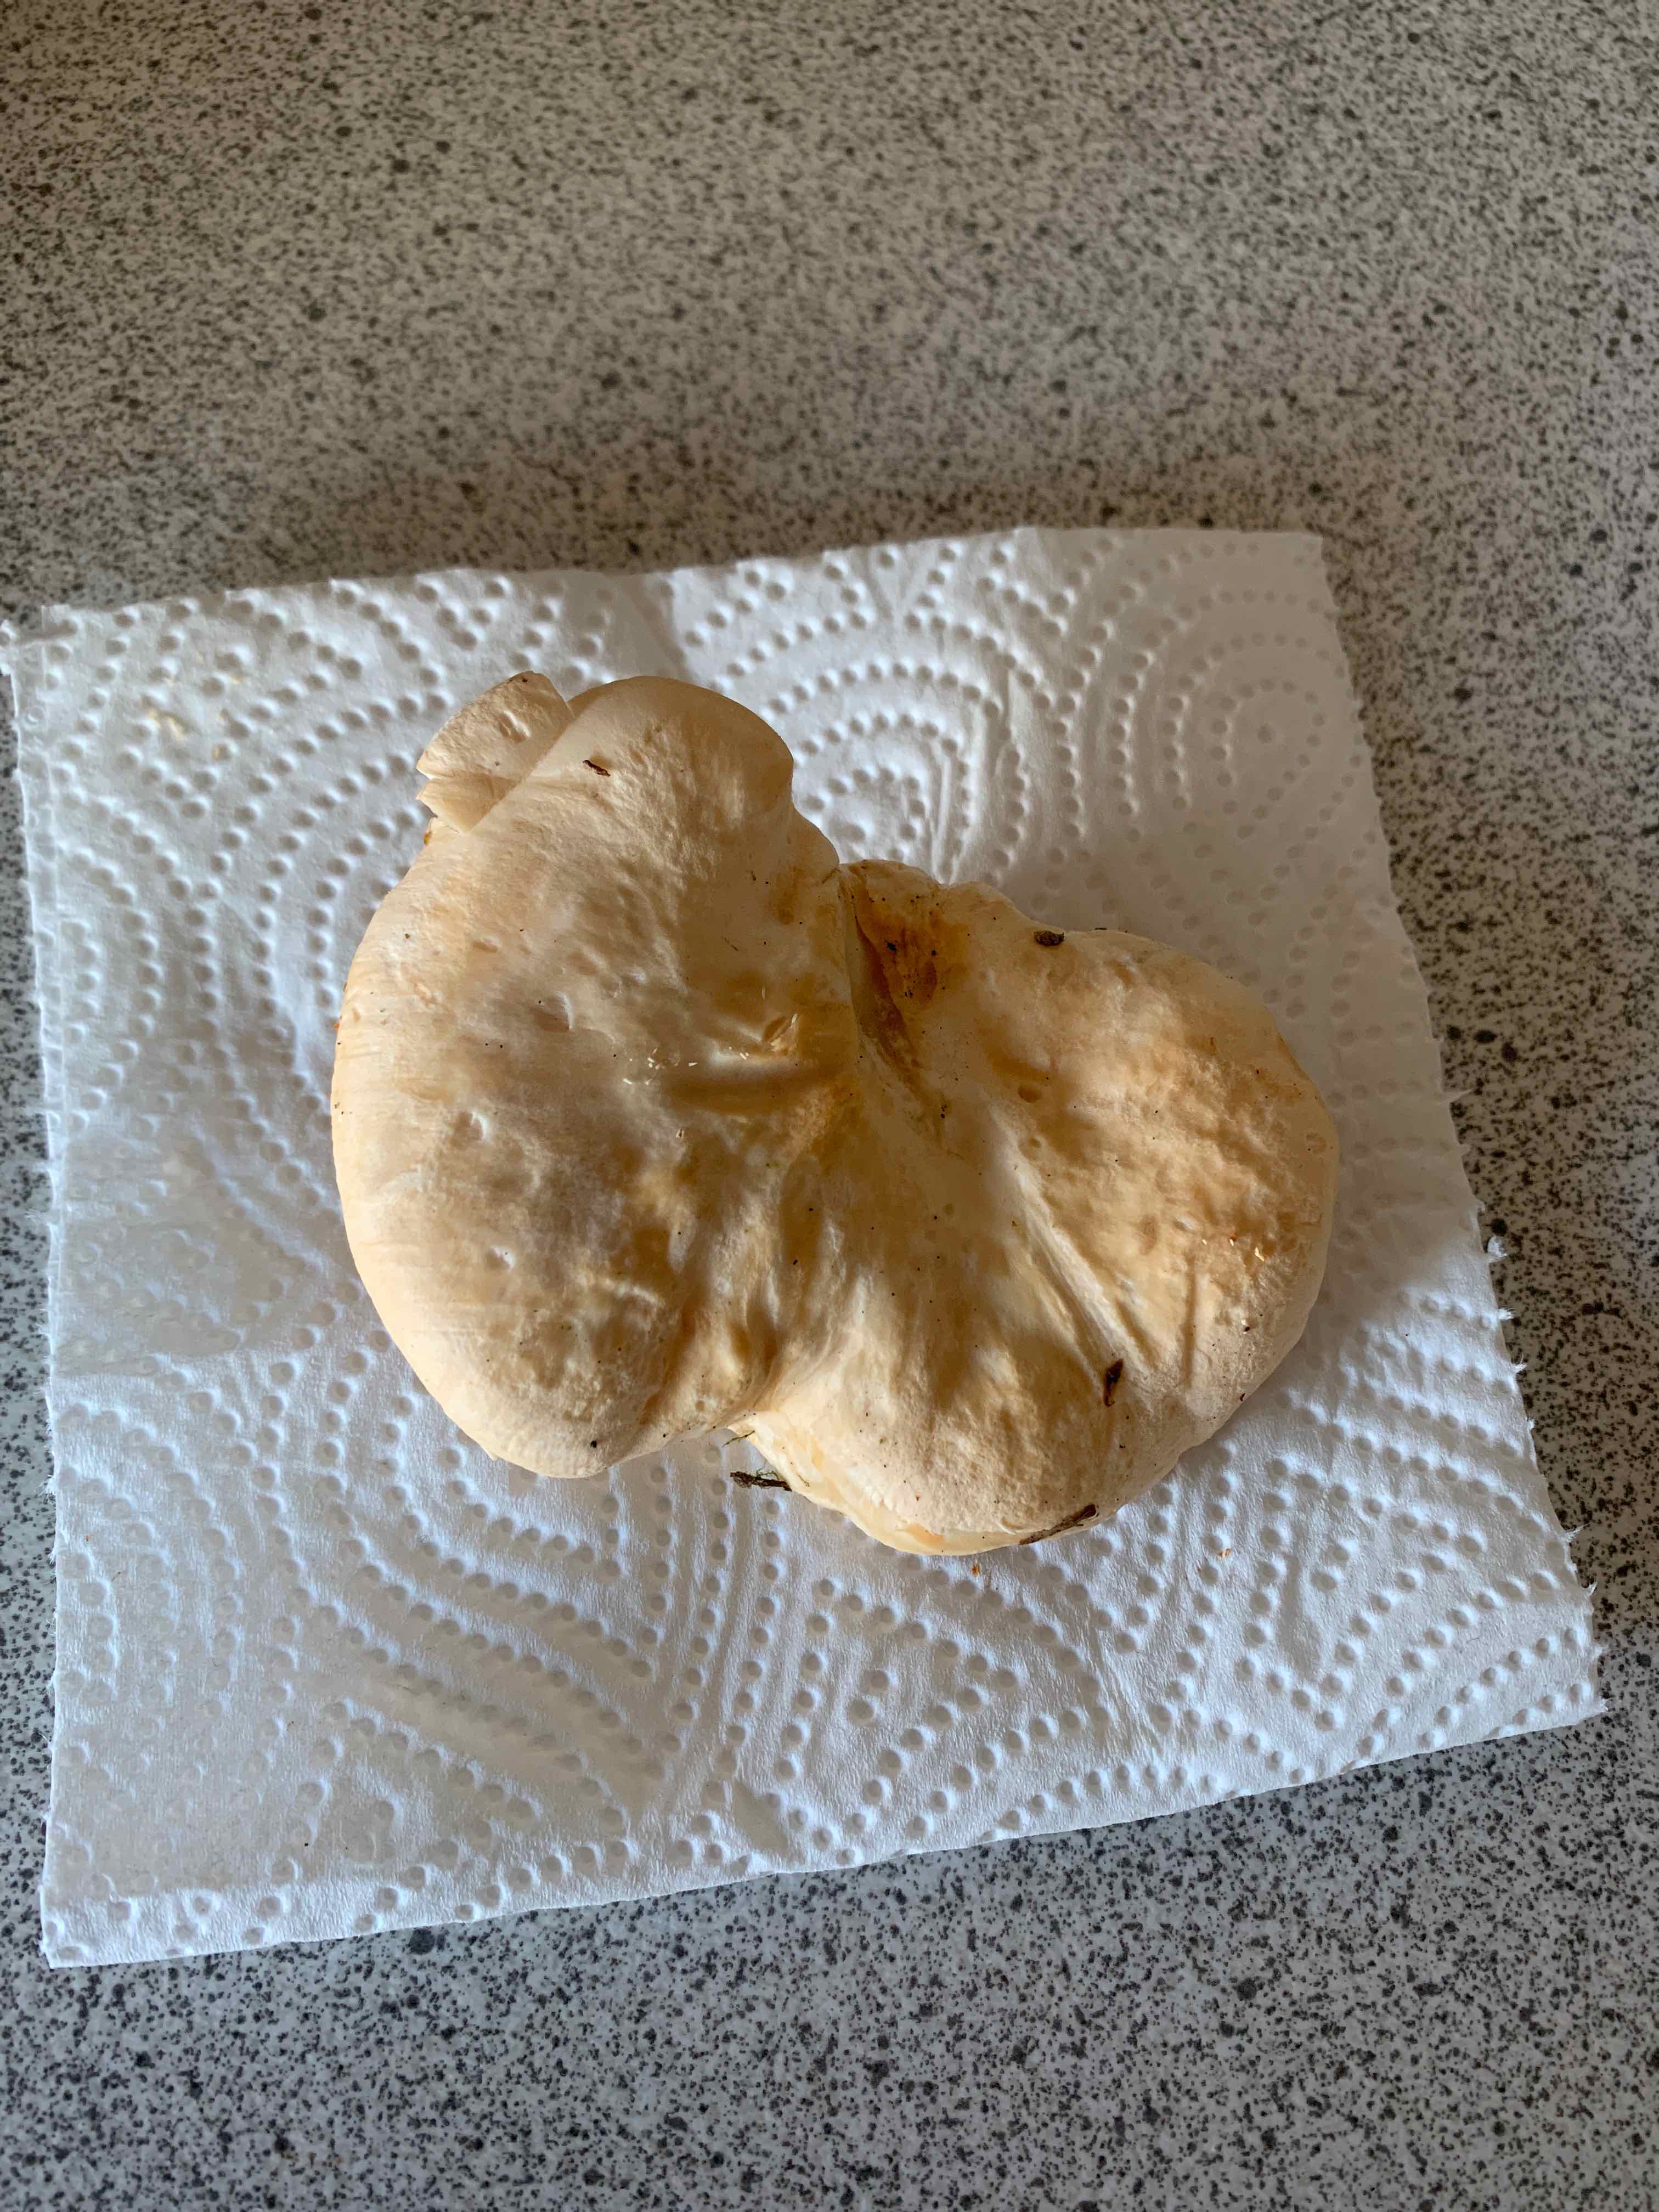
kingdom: Fungi
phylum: Basidiomycota
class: Agaricomycetes
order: Cantharellales
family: Hydnaceae
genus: Hydnum
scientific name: Hydnum repandum
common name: almindelig pigsvamp
